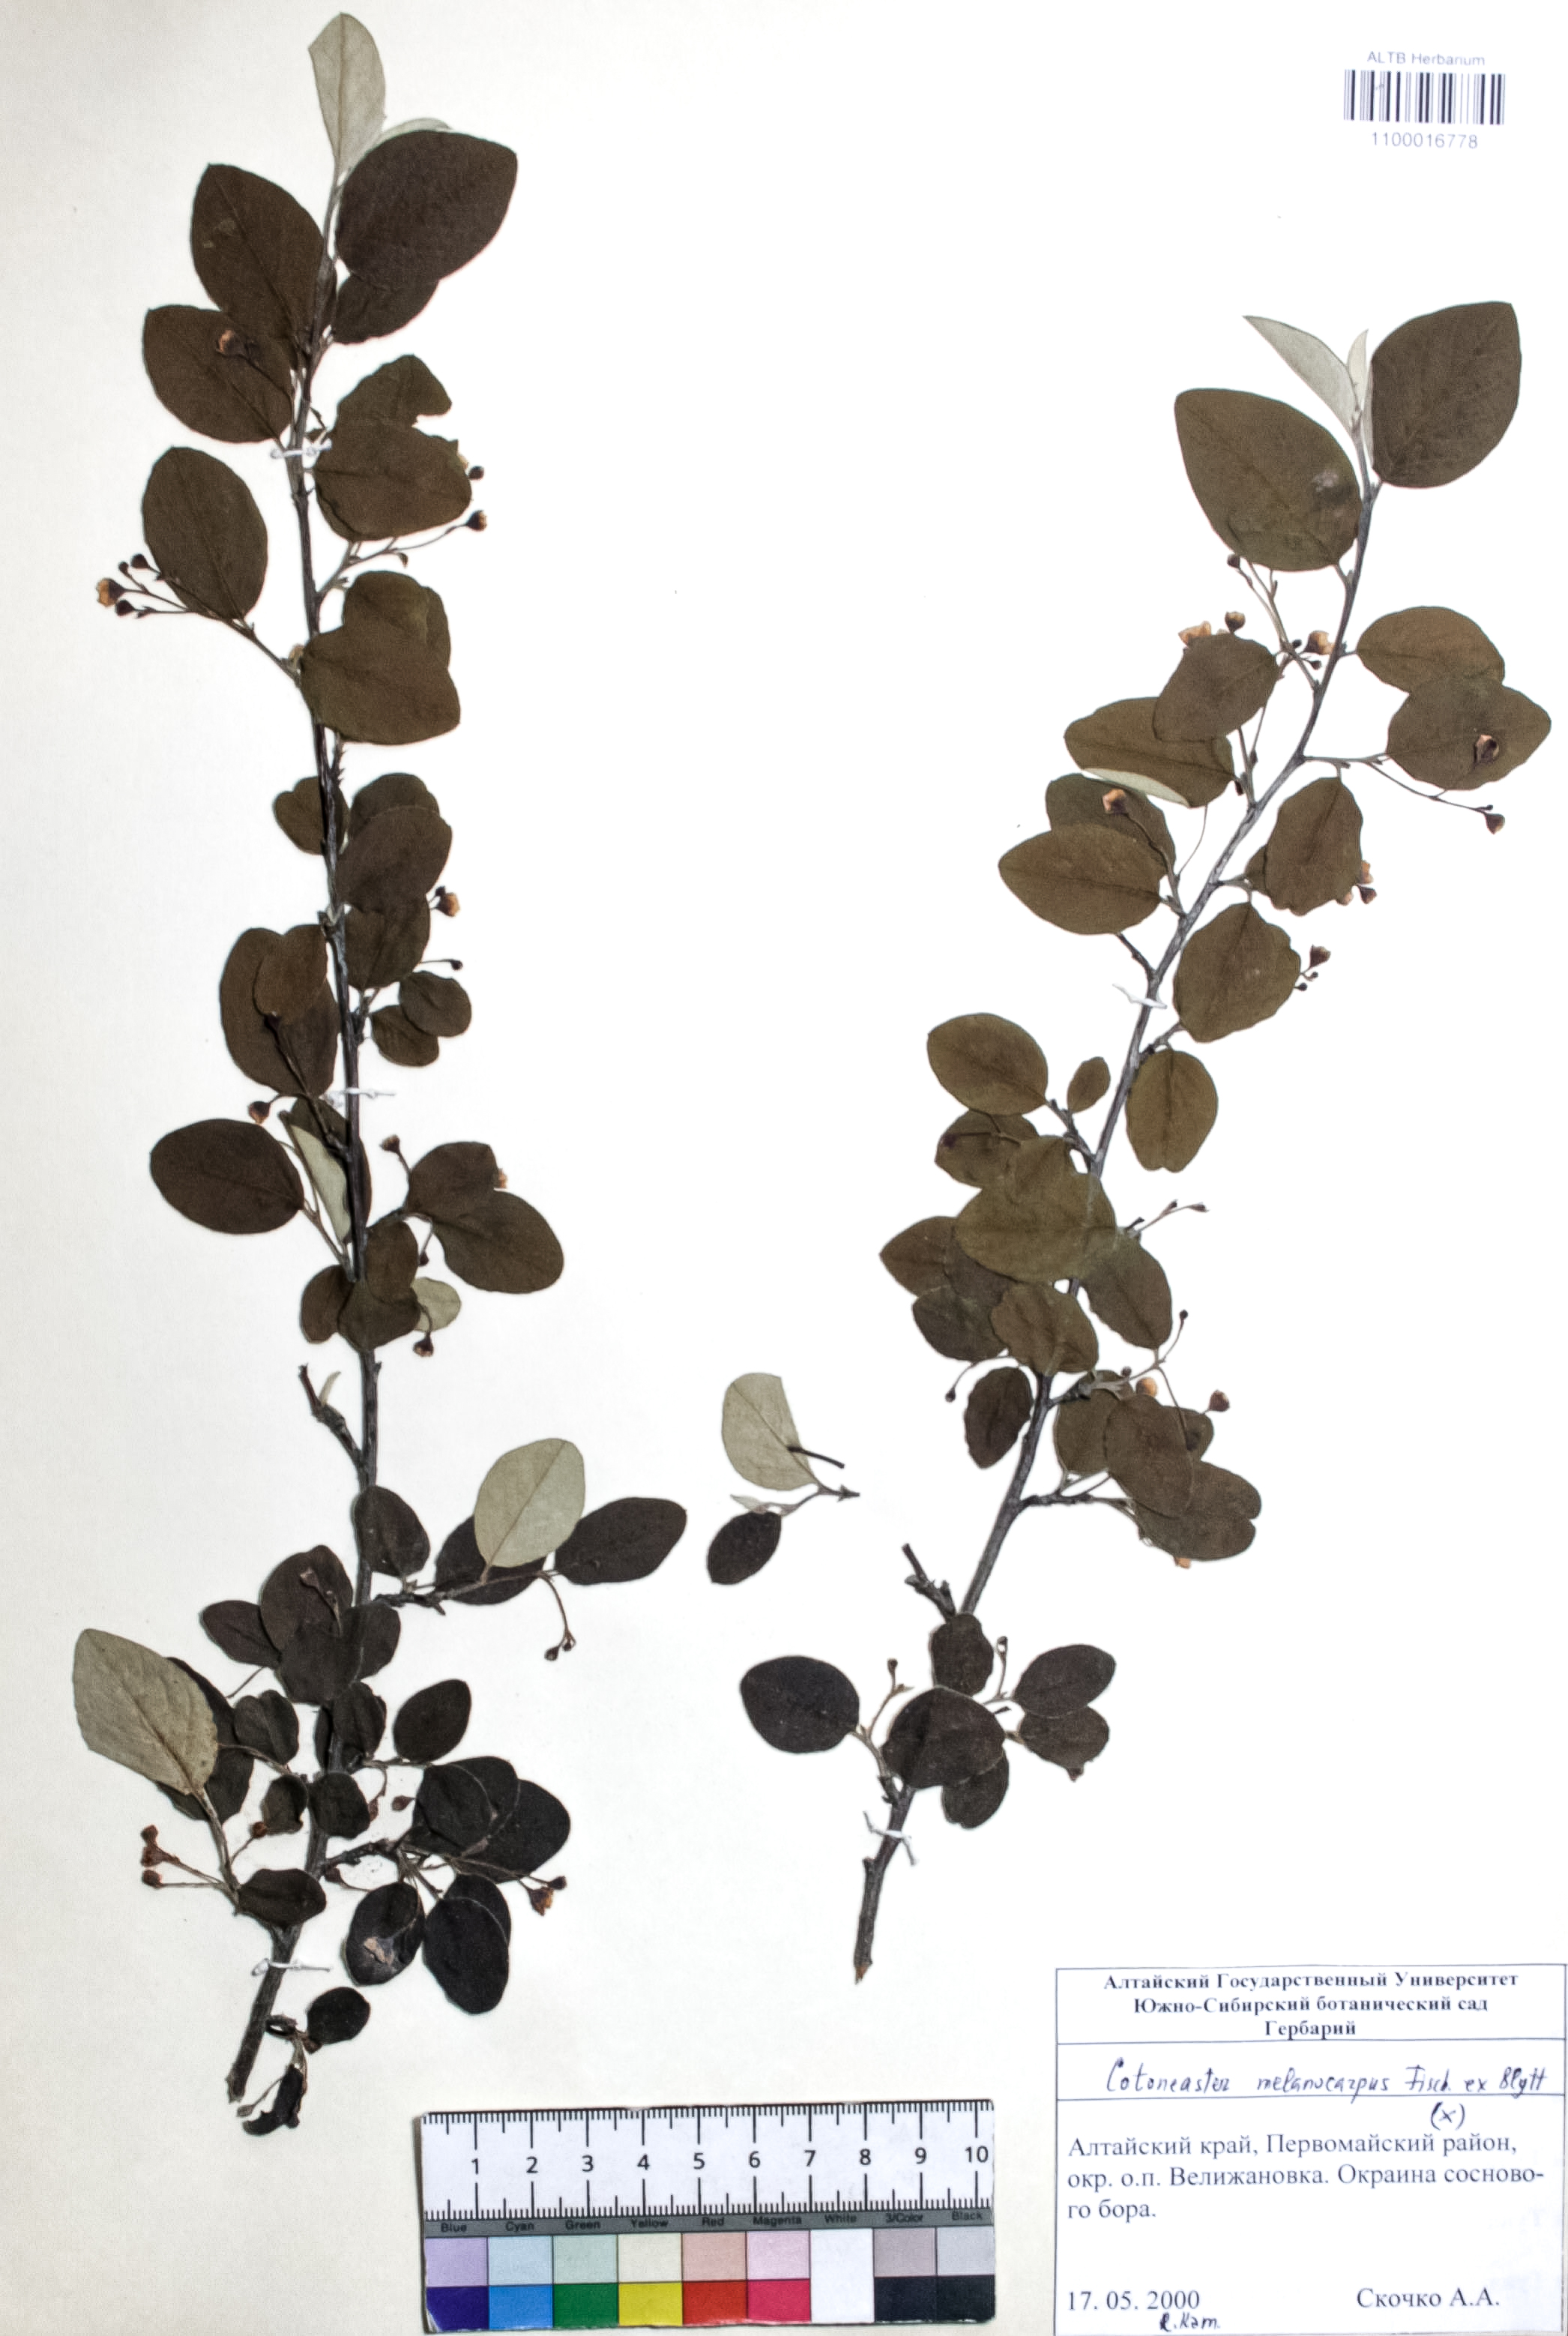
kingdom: Plantae
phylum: Tracheophyta
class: Magnoliopsida
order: Rosales
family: Rosaceae
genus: Cotoneaster
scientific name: Cotoneaster niger
